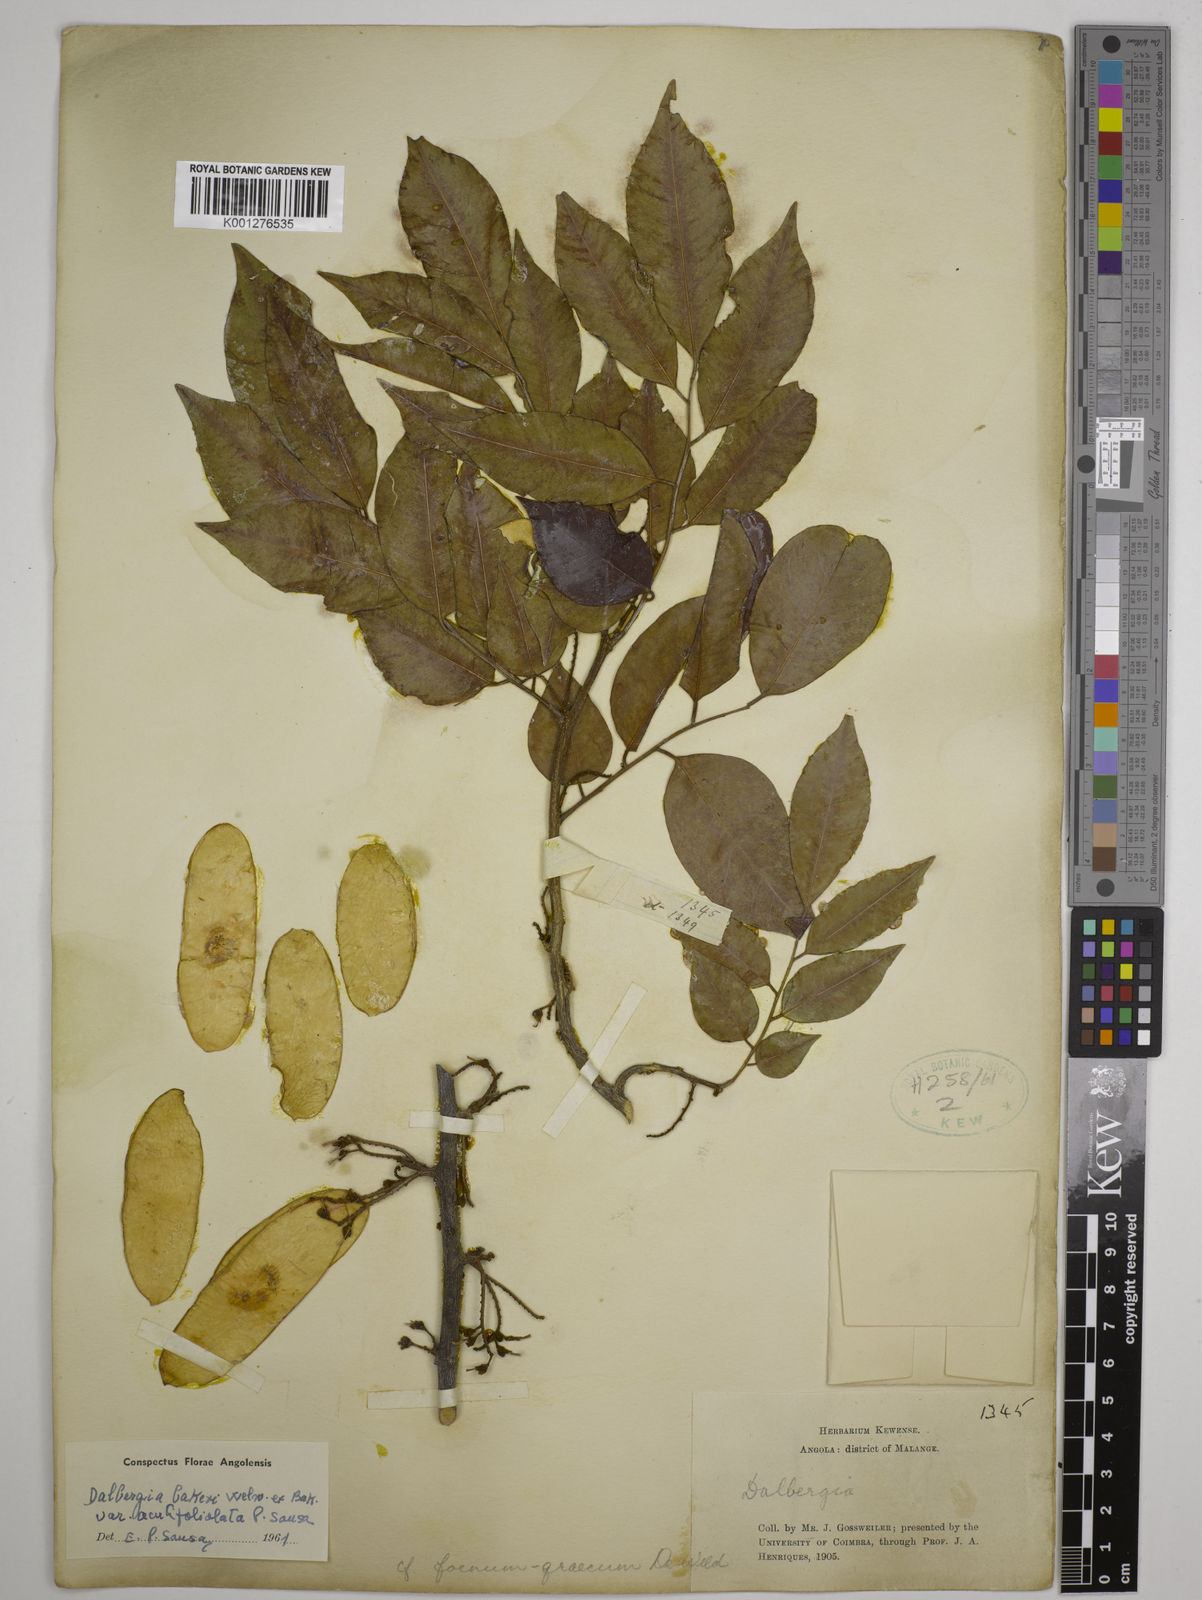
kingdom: Plantae
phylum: Tracheophyta
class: Magnoliopsida
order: Fabales
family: Fabaceae
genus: Dalbergia
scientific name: Dalbergia bakeri
